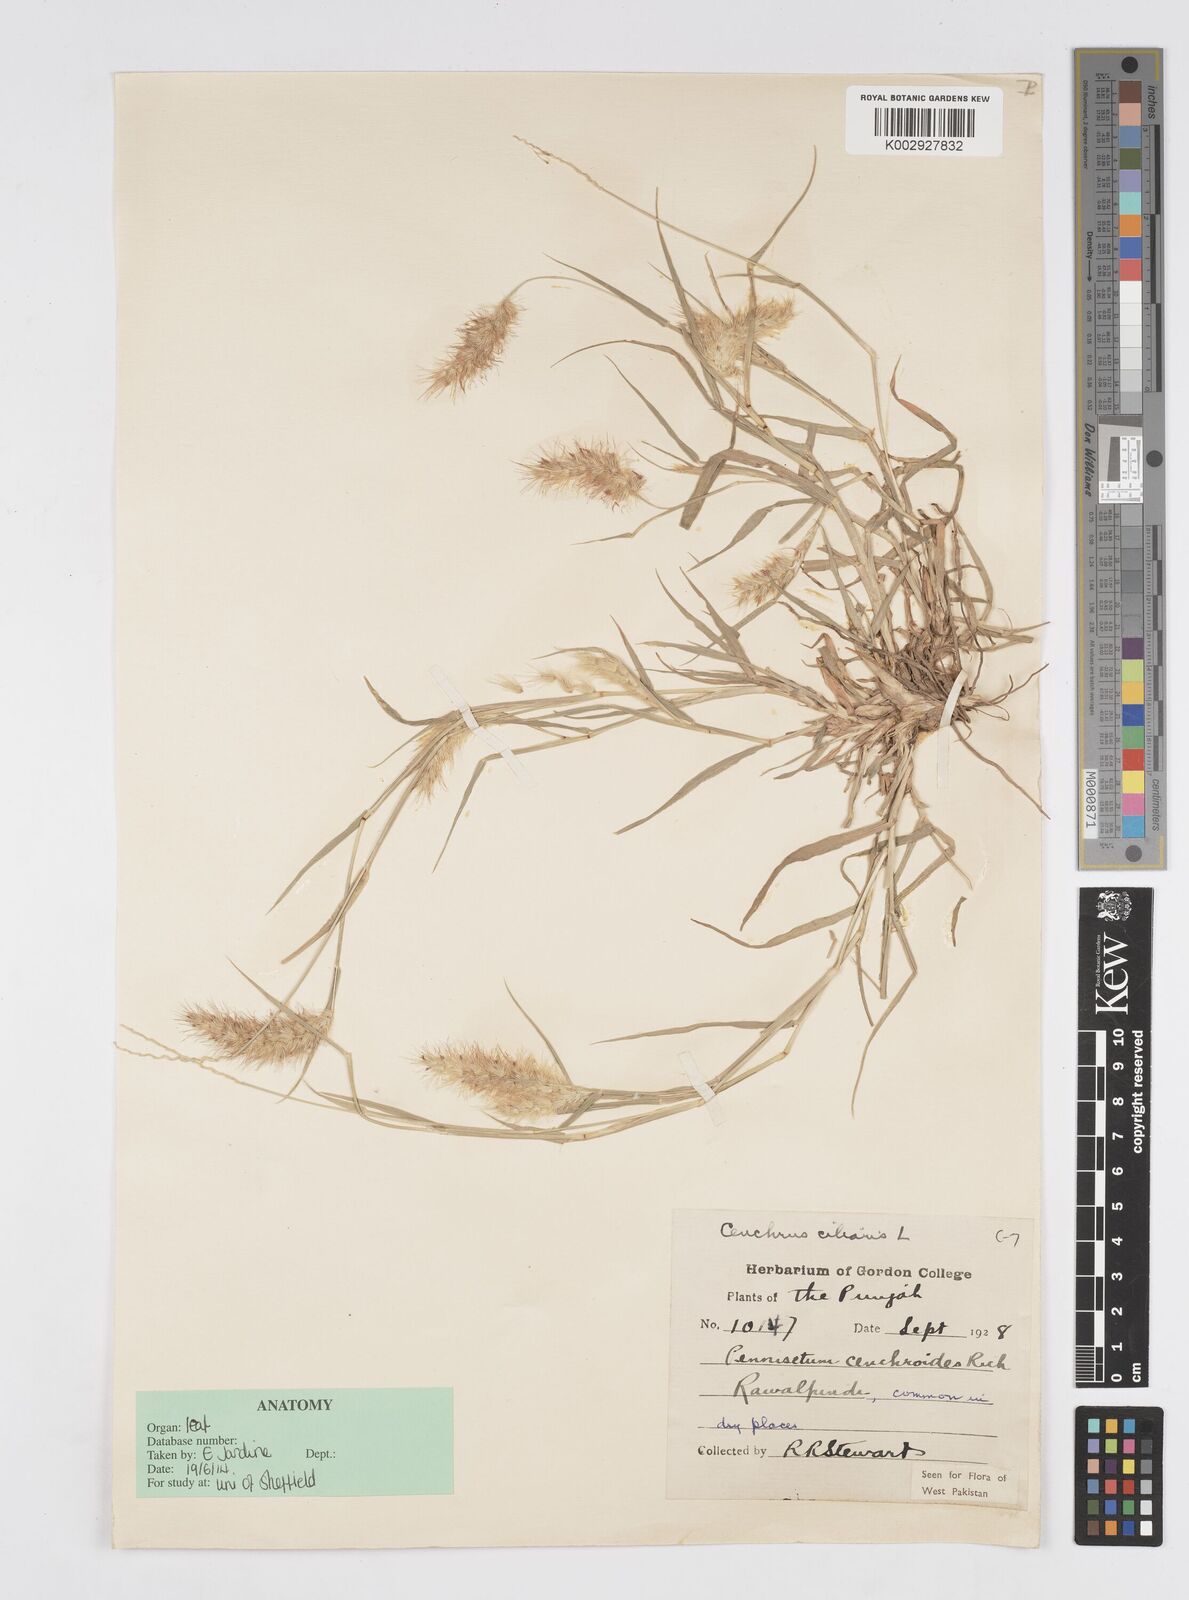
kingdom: Plantae
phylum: Tracheophyta
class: Liliopsida
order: Poales
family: Poaceae
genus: Cenchrus
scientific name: Cenchrus ciliaris
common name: Buffelgrass
